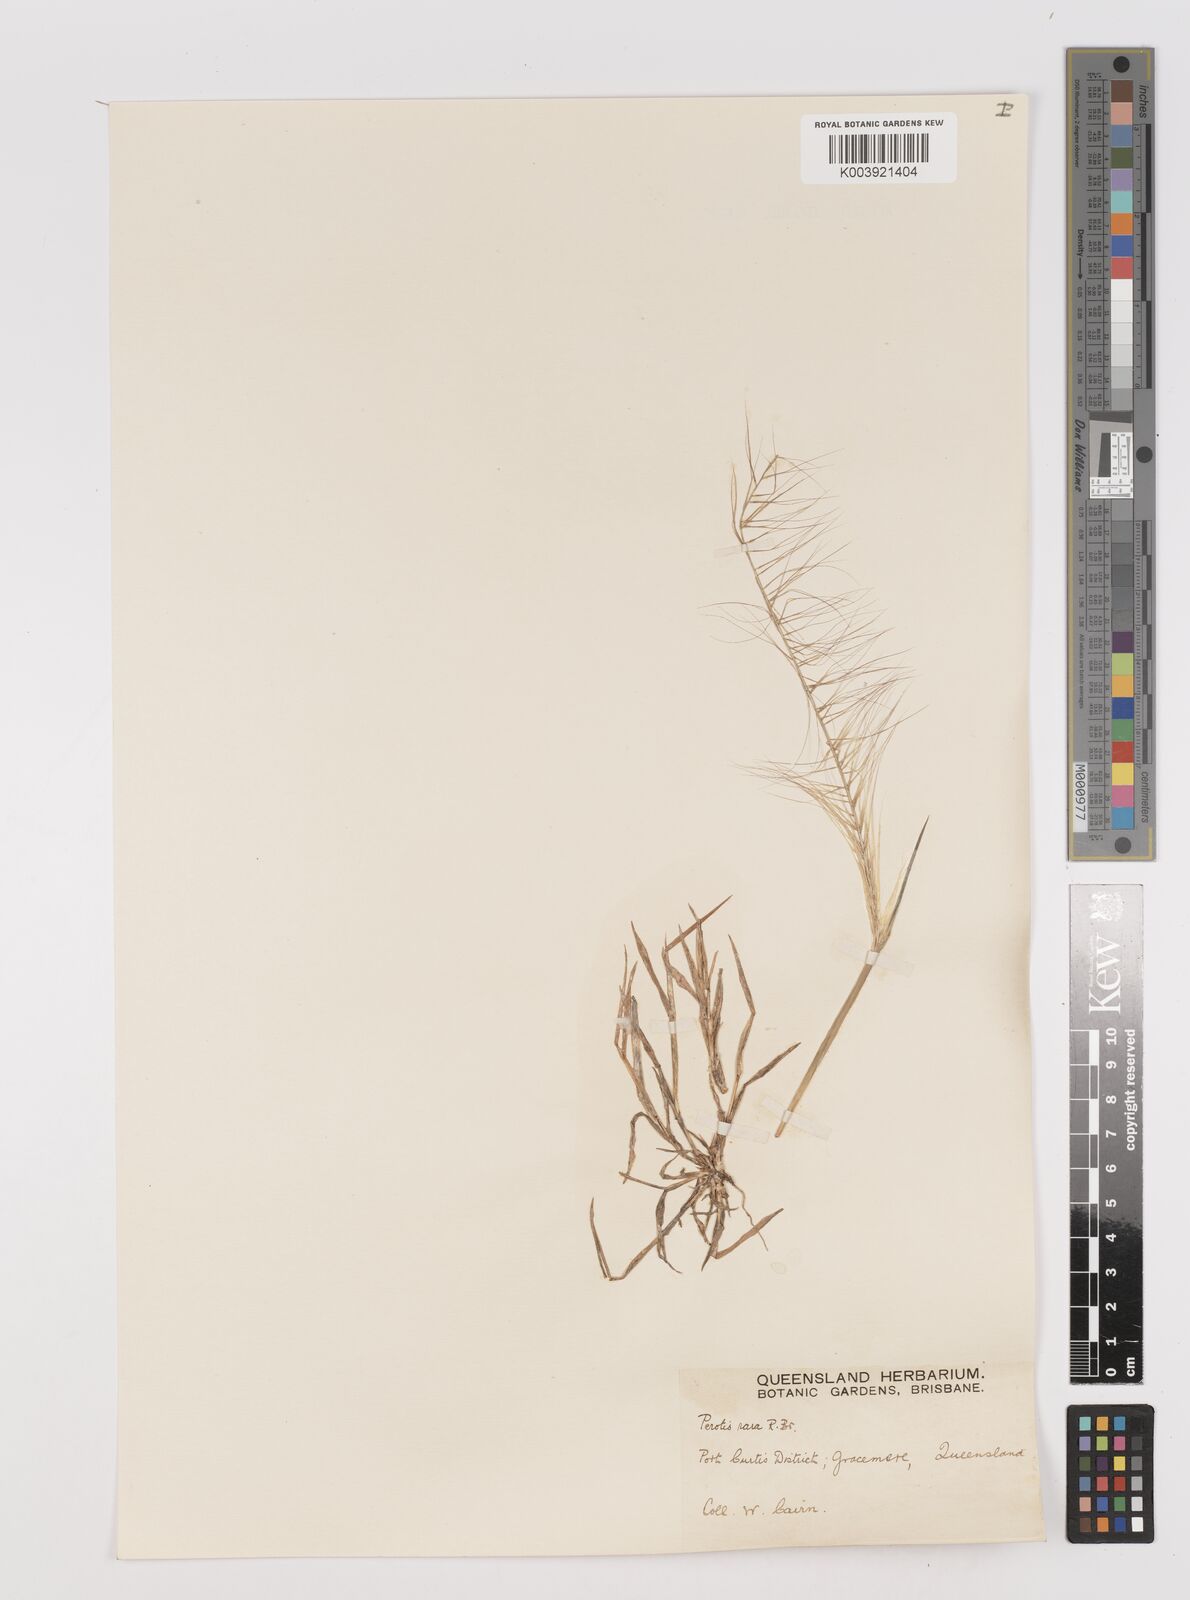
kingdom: Plantae
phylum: Tracheophyta
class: Liliopsida
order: Poales
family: Poaceae
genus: Perotis
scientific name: Perotis rara
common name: Comet grass
